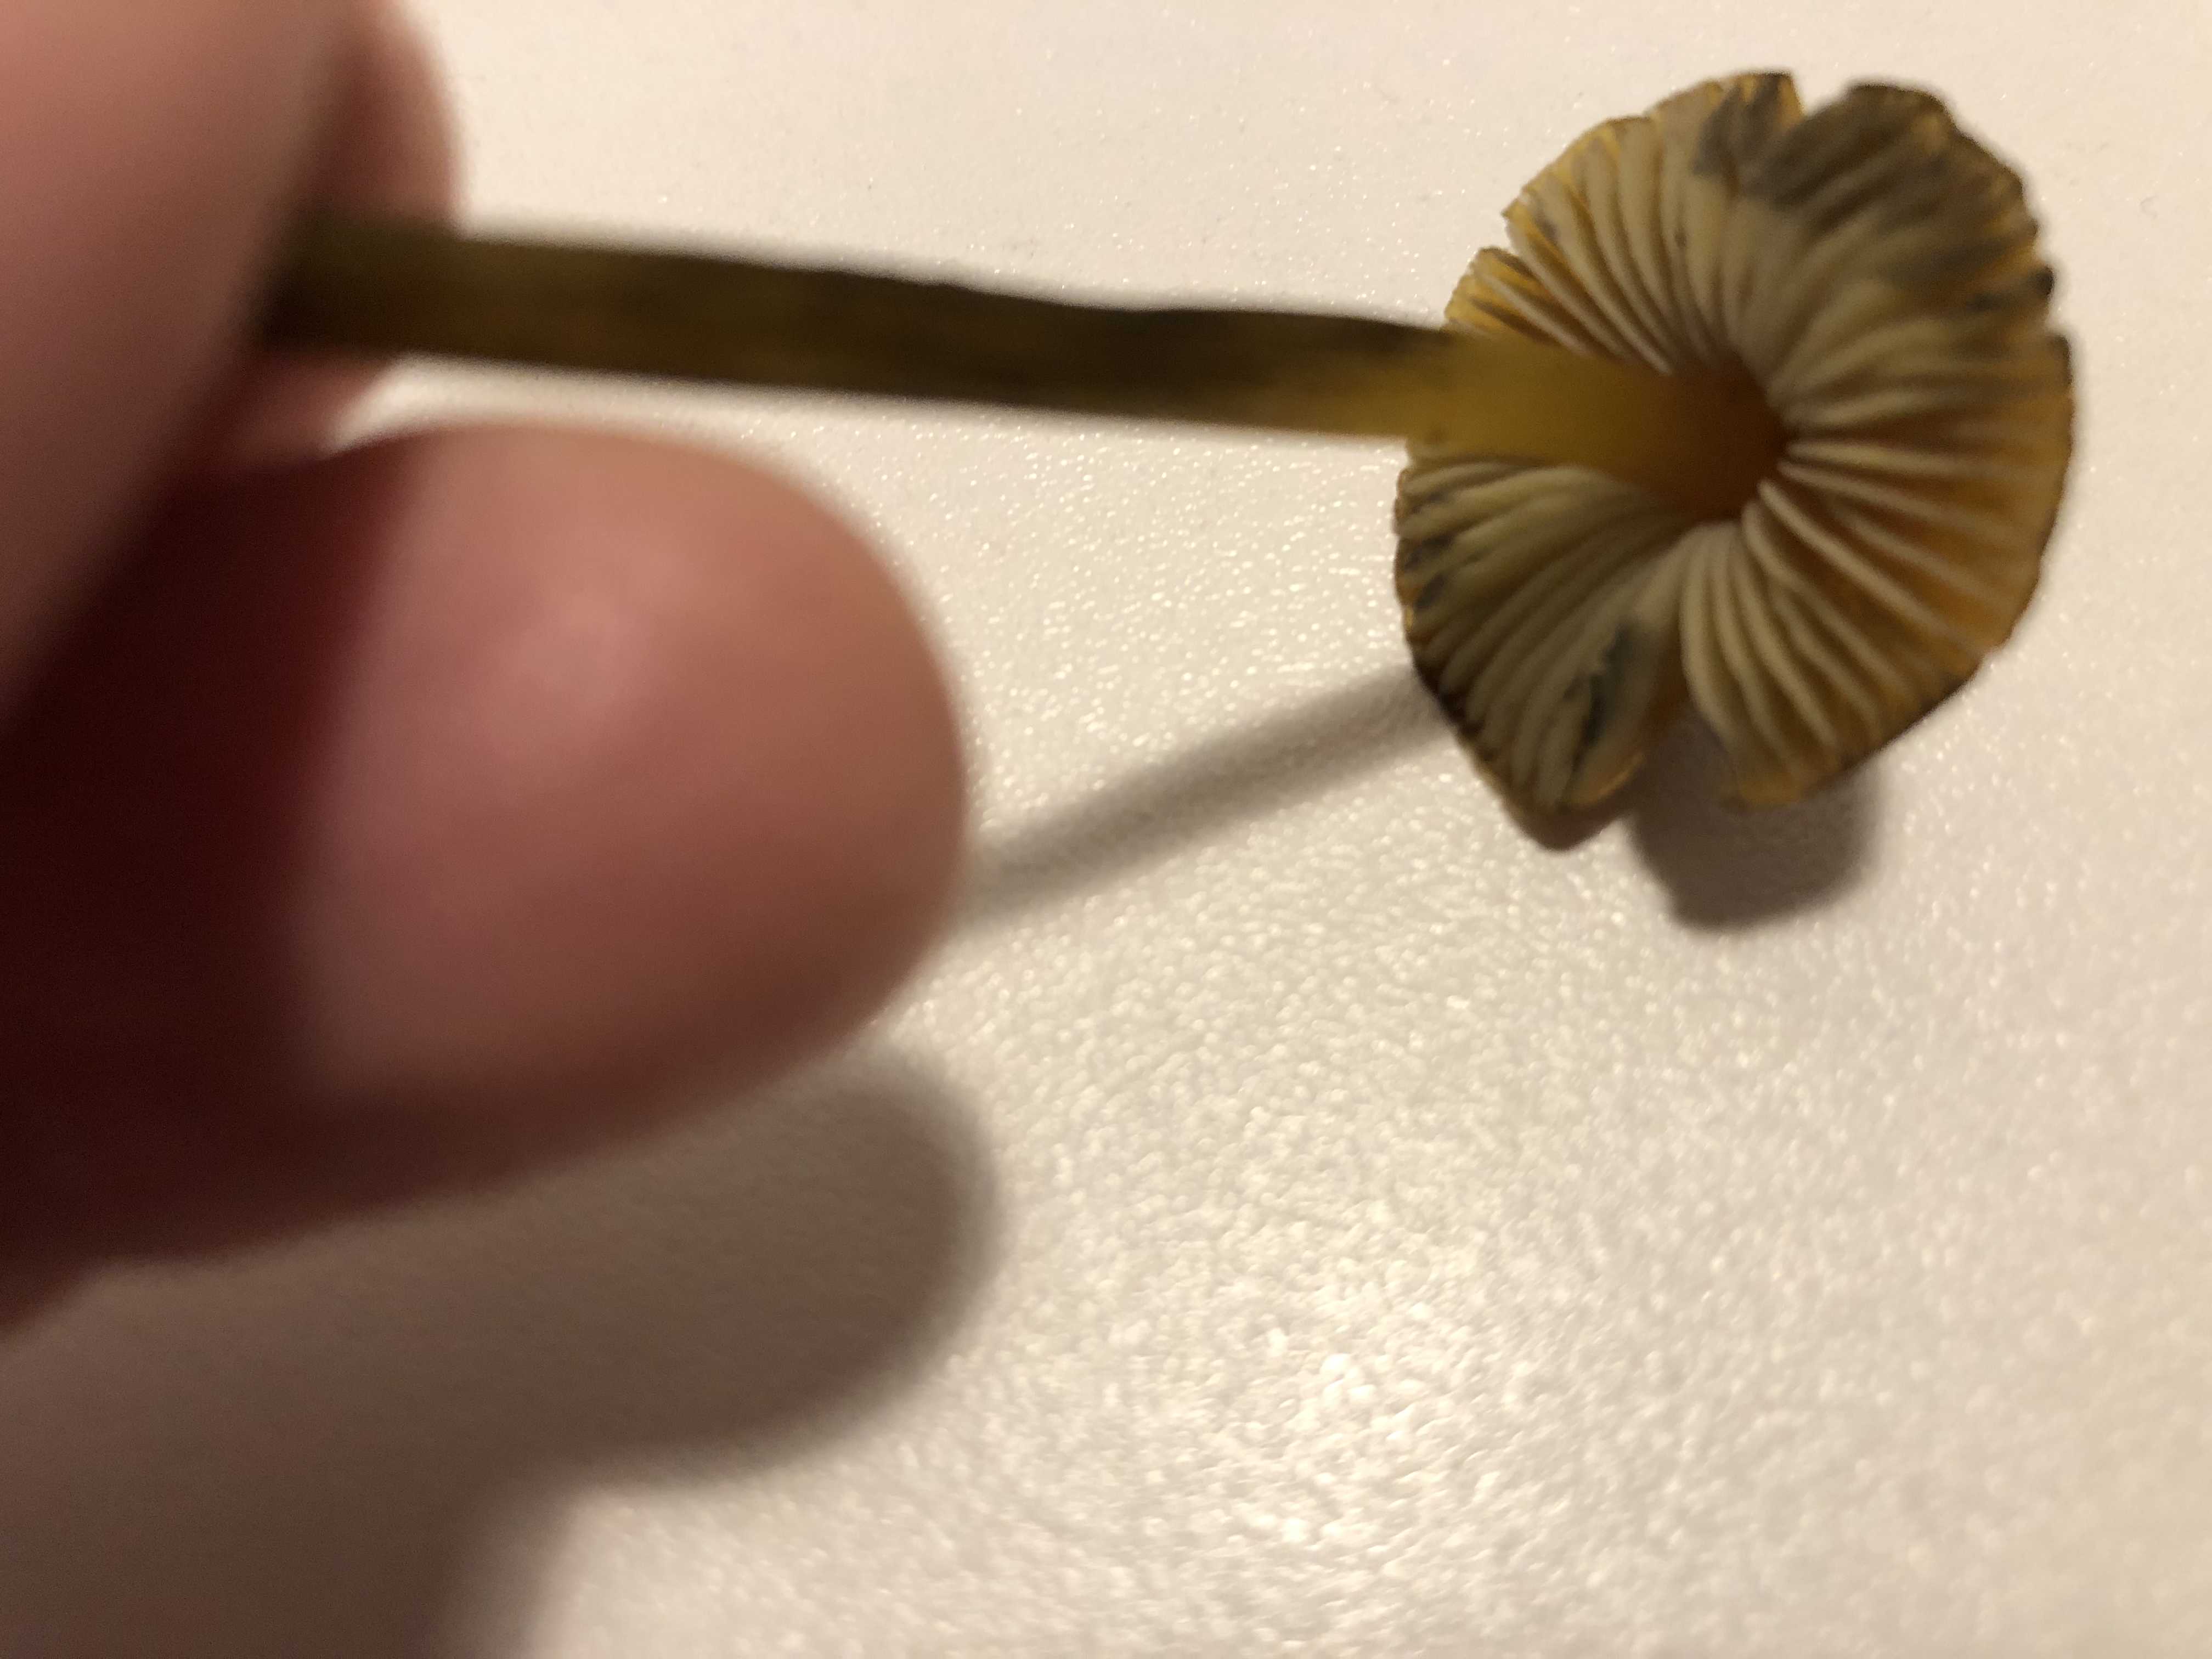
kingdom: Fungi
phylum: Basidiomycota
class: Agaricomycetes
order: Agaricales
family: Hygrophoraceae
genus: Hygrocybe
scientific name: Hygrocybe conica
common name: kegle-vokshat
